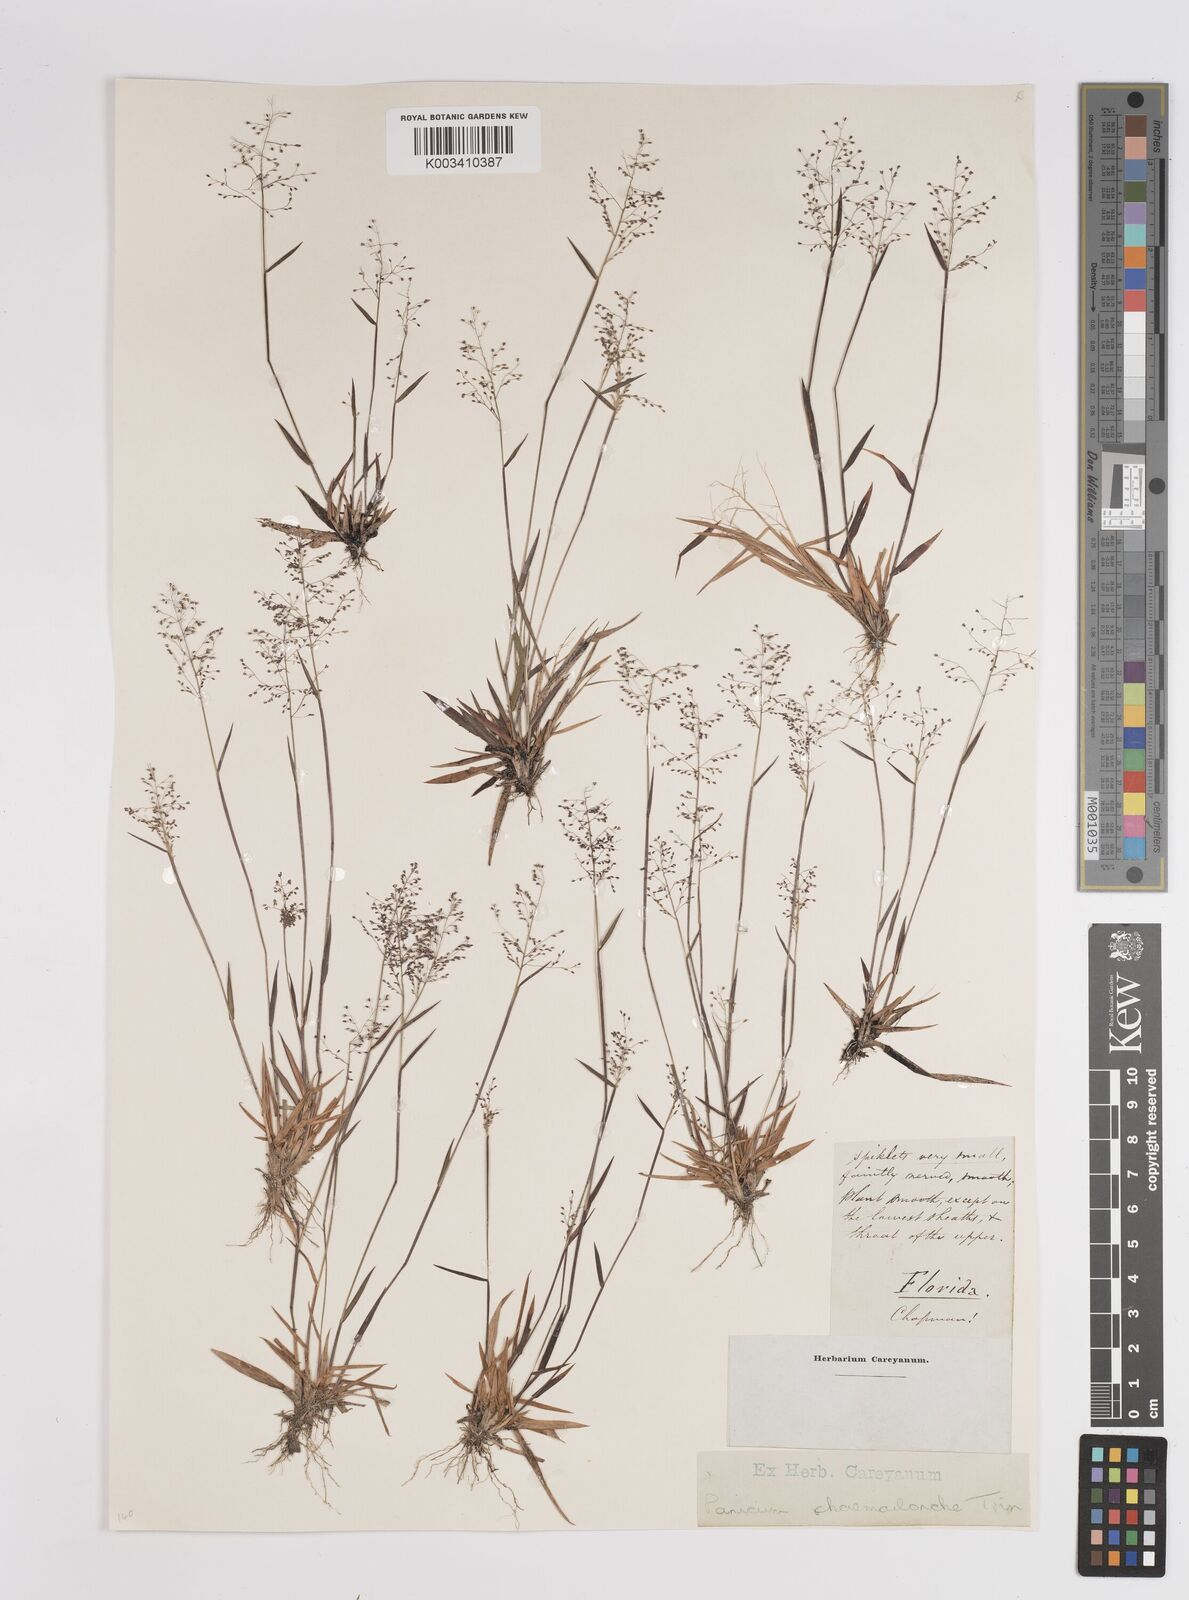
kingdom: Plantae
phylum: Tracheophyta
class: Liliopsida
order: Poales
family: Poaceae
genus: Dichanthelium
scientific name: Dichanthelium chamaelonche
